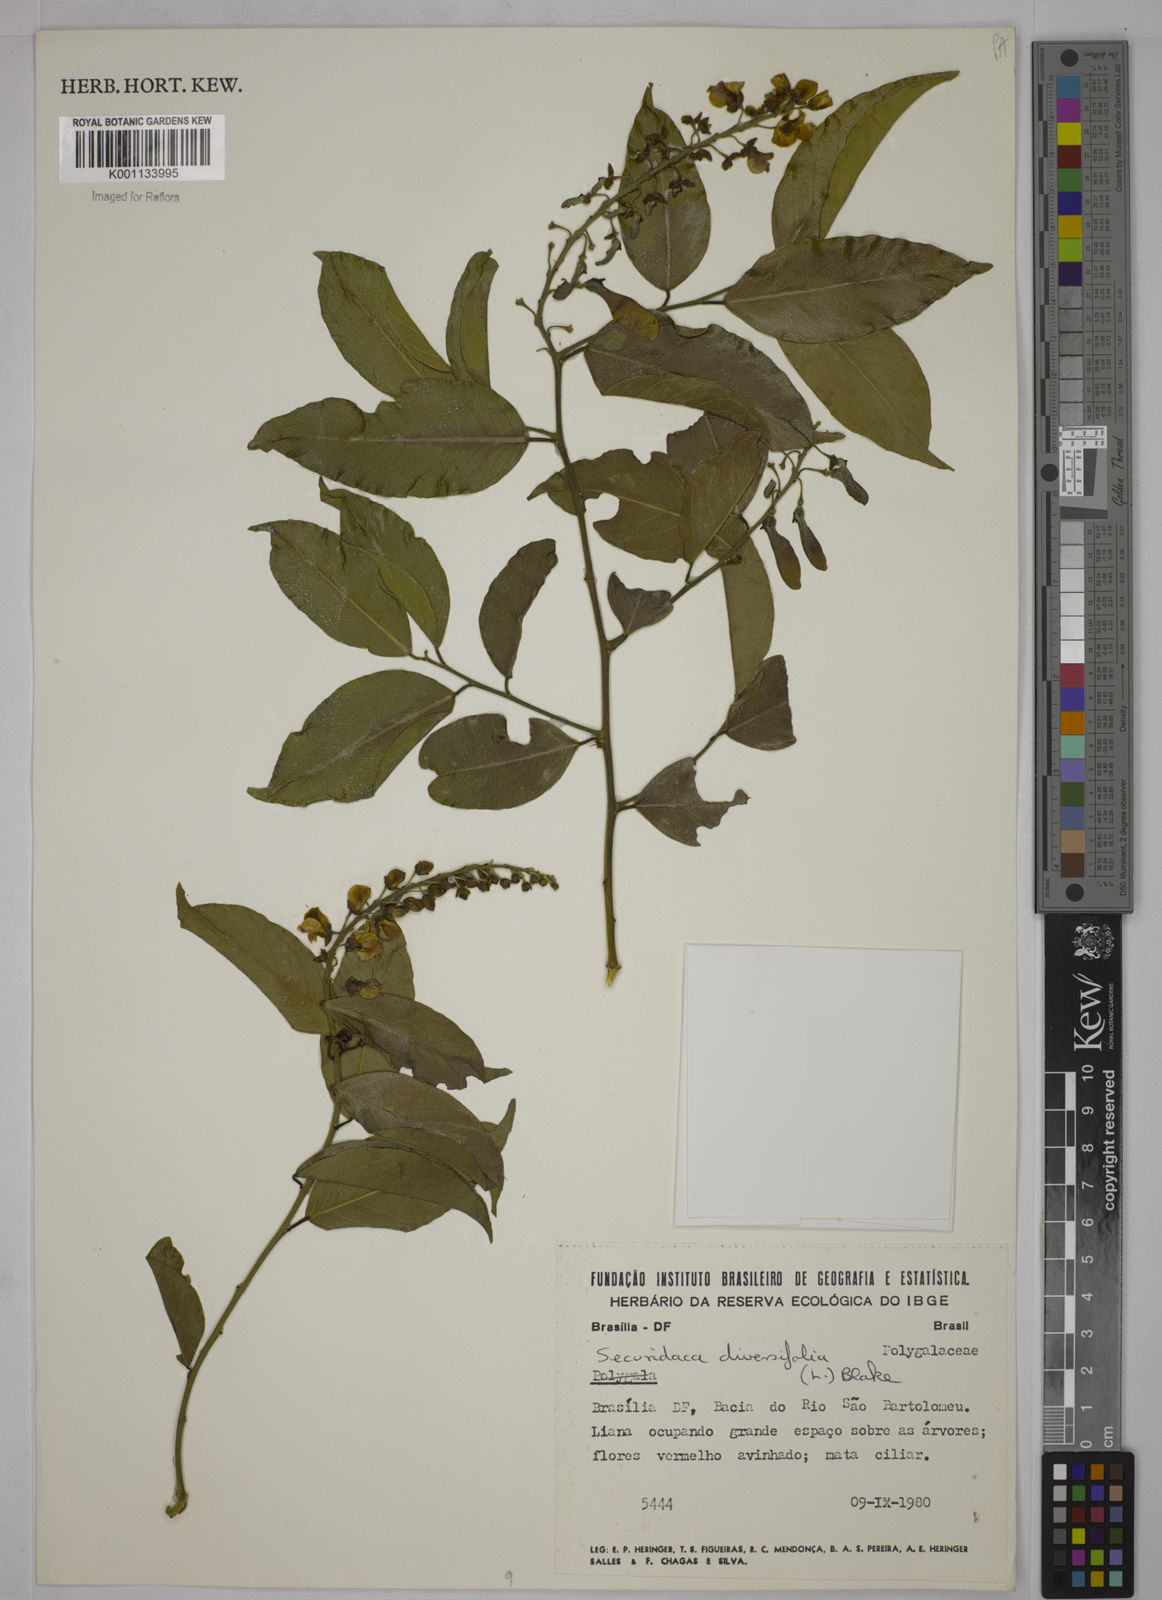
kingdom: Plantae
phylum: Tracheophyta
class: Magnoliopsida
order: Fabales
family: Polygalaceae
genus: Securidaca
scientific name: Securidaca diversifolia
